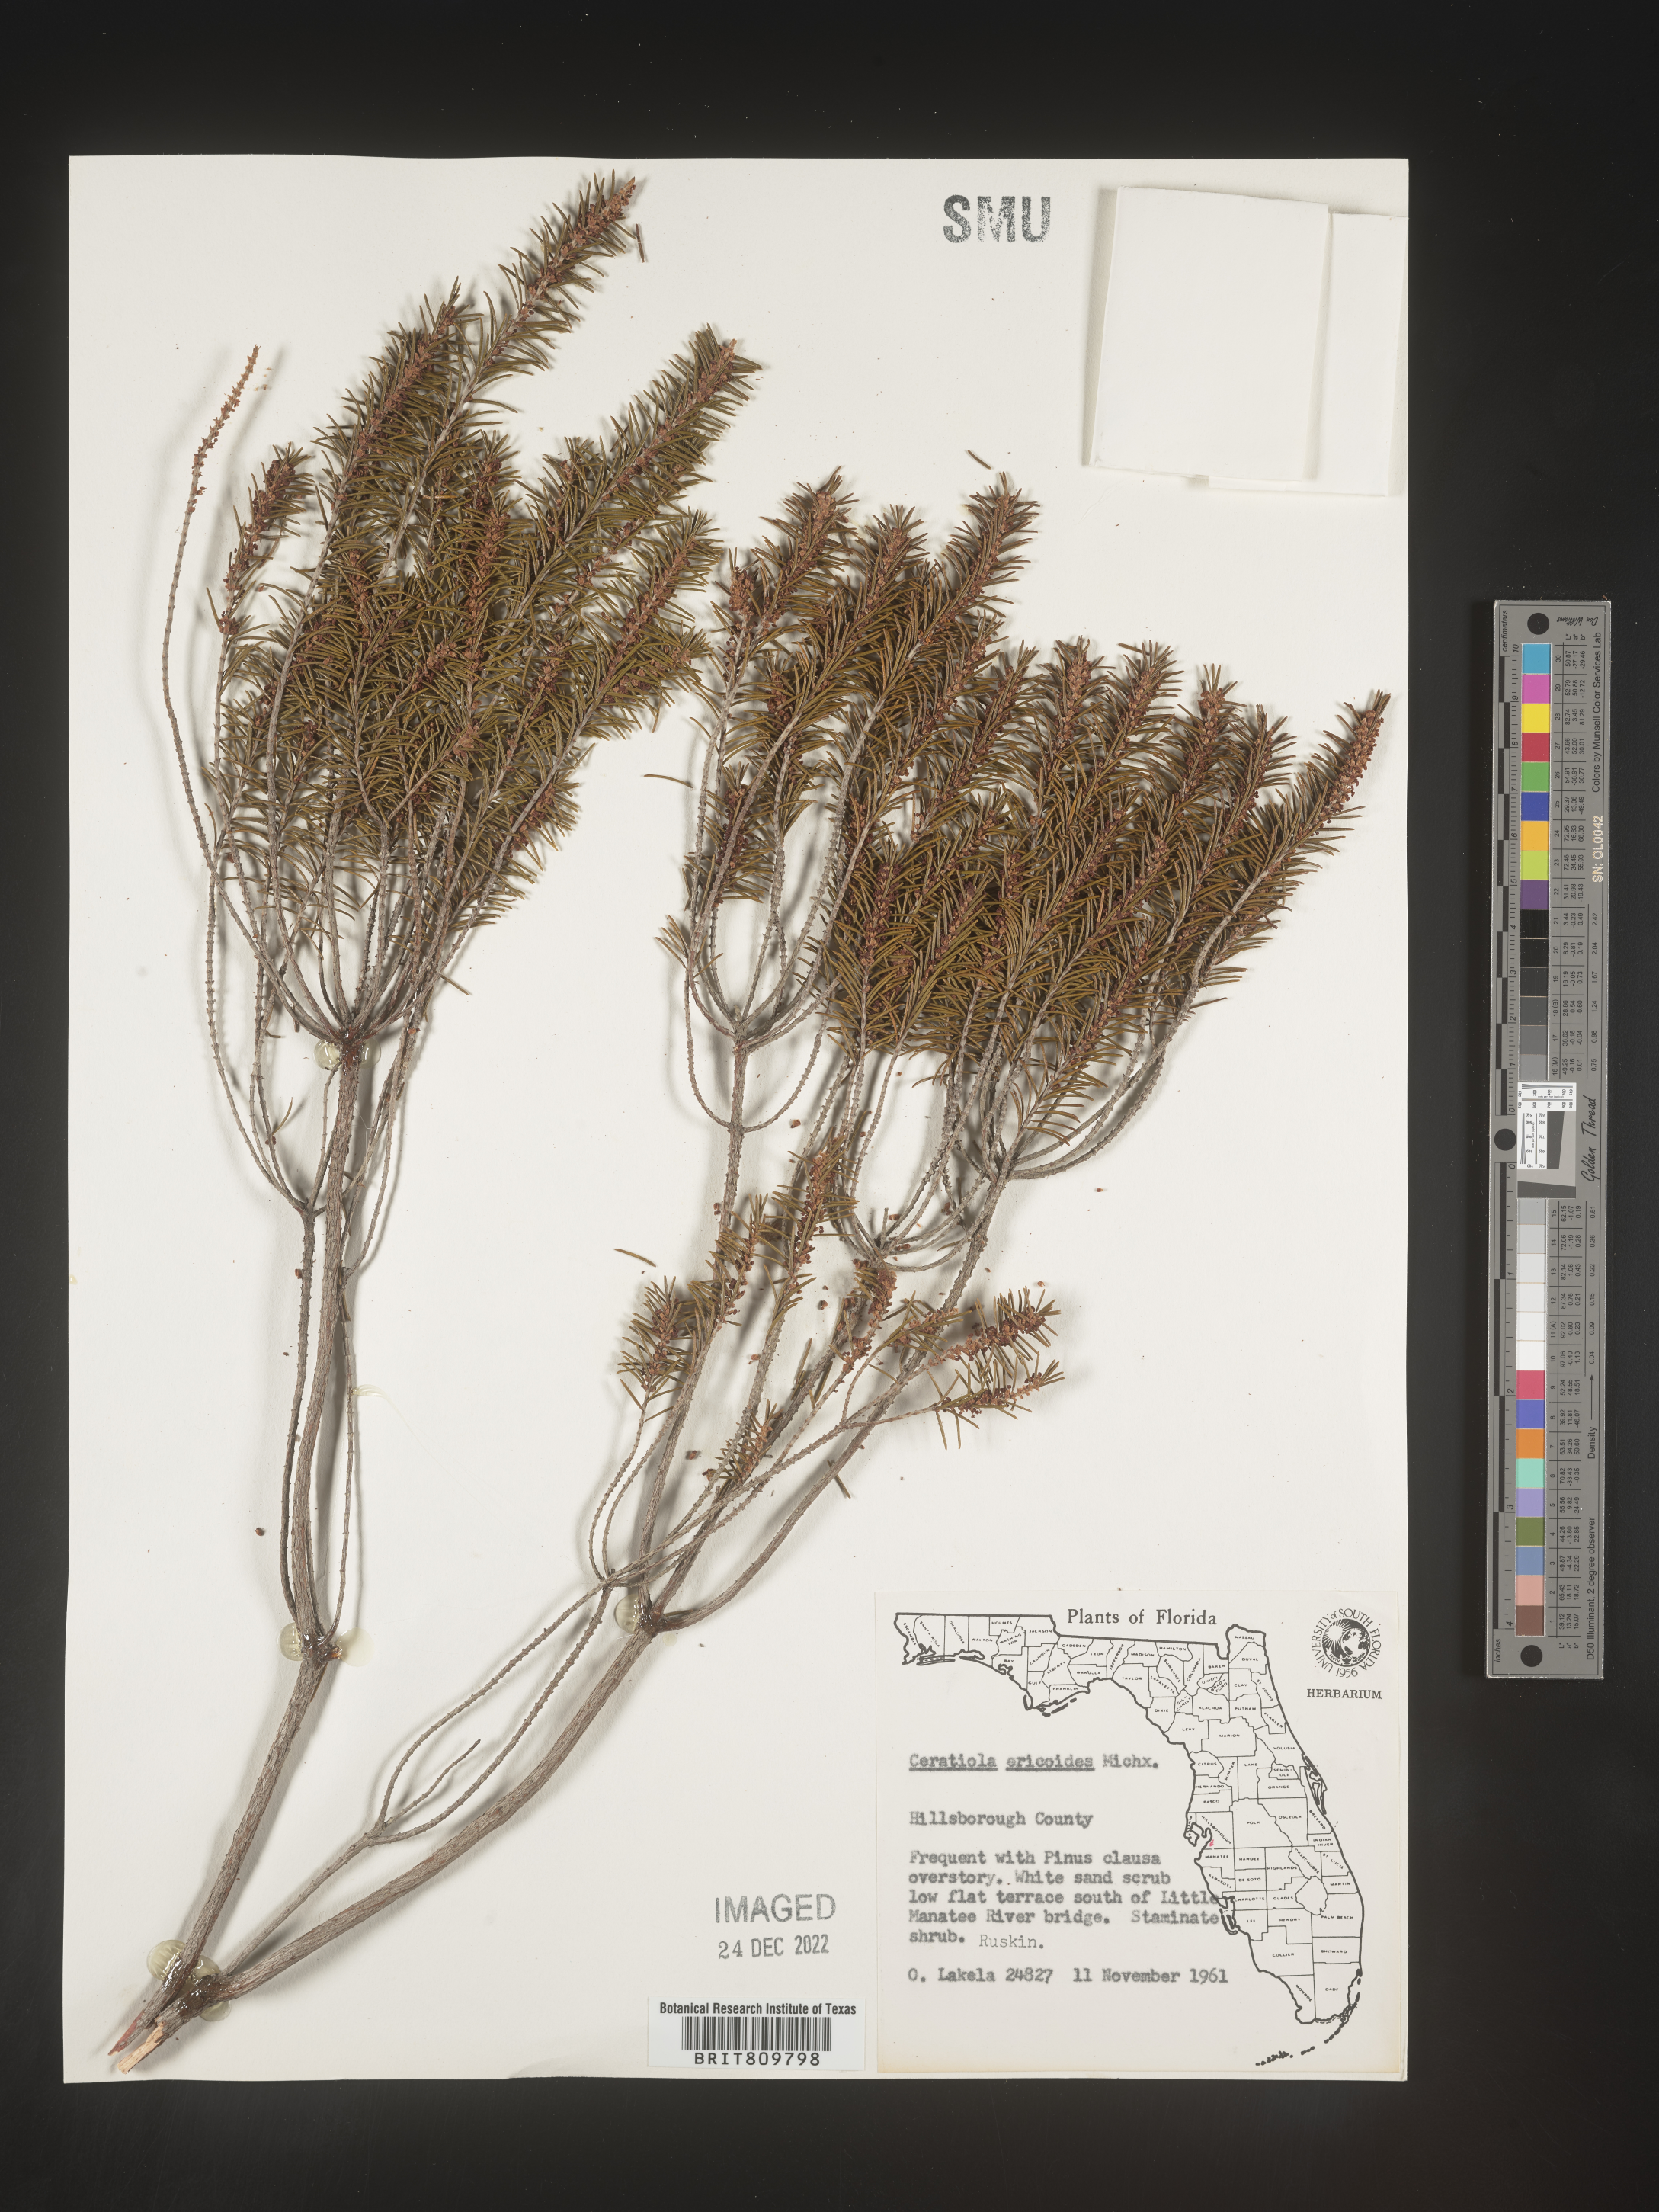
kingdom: Plantae
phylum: Tracheophyta
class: Magnoliopsida
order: Ericales
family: Ericaceae
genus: Ceratiola
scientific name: Ceratiola ericoides
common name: Sandhill-rosemary
